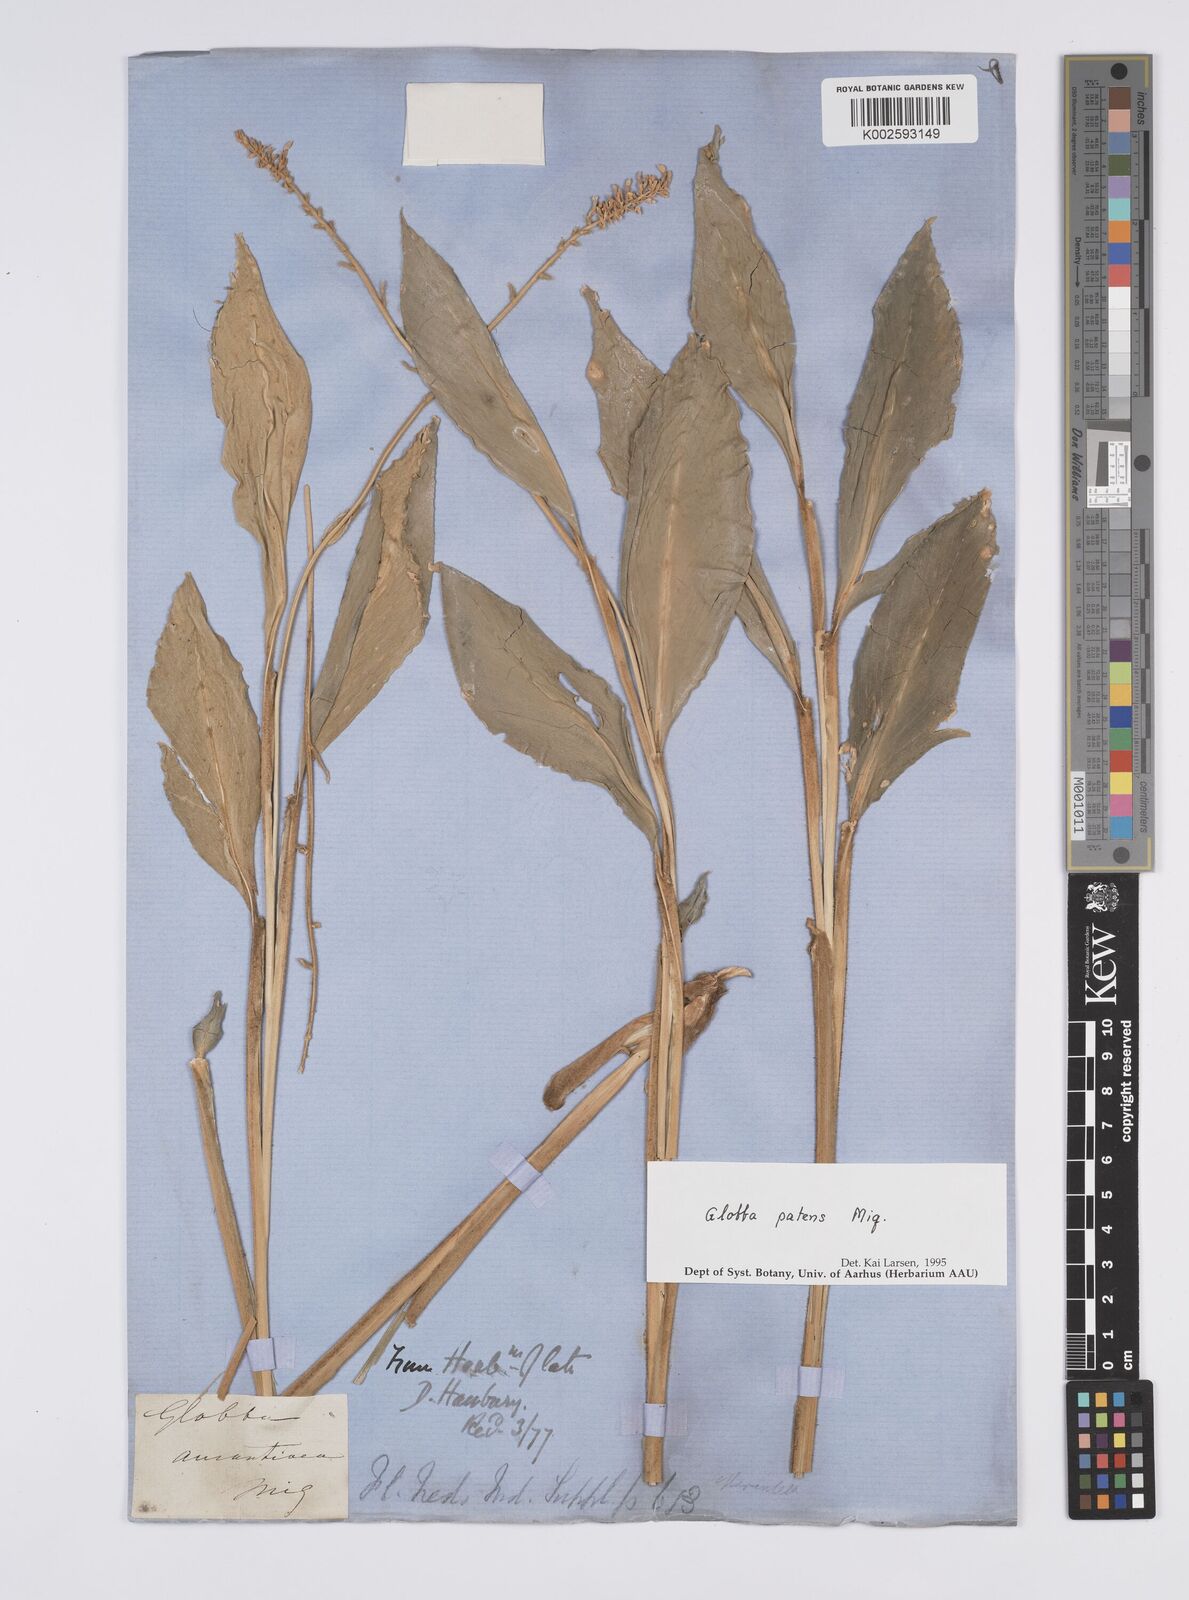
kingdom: Plantae
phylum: Tracheophyta
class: Liliopsida
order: Zingiberales
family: Zingiberaceae
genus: Globba
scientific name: Globba patens
